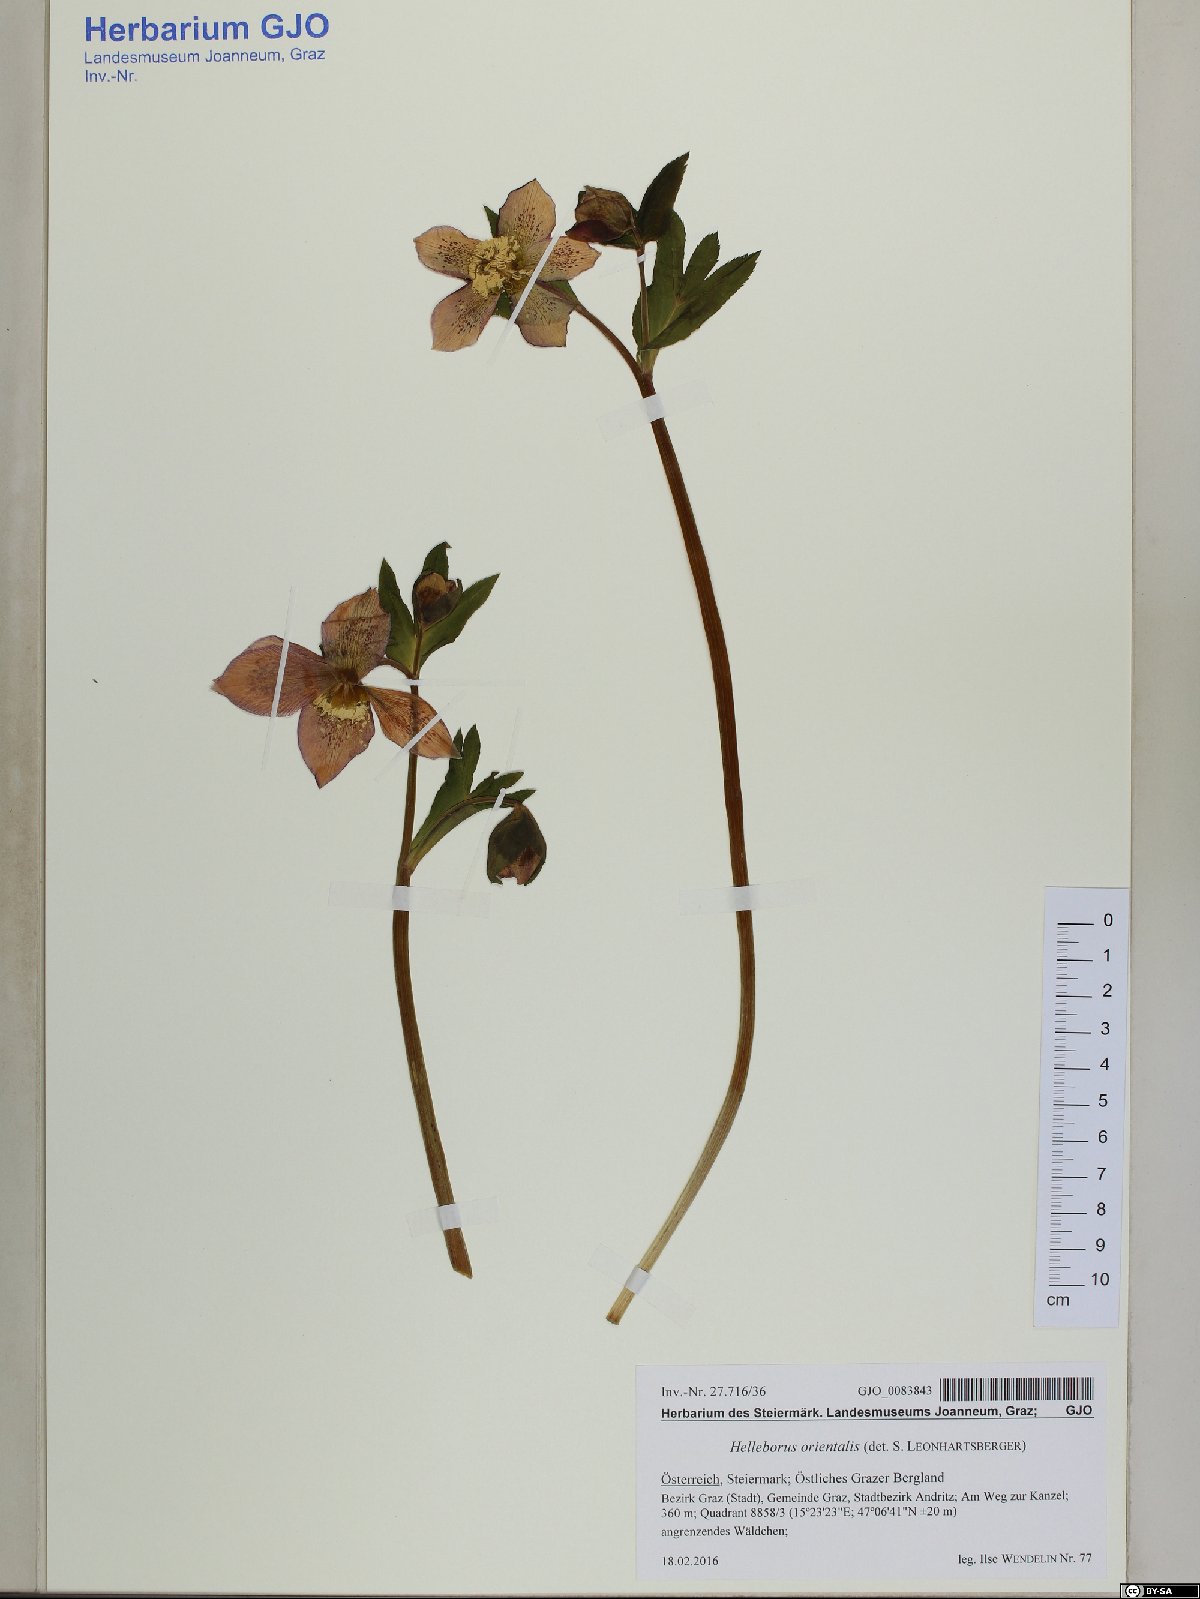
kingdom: Plantae
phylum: Tracheophyta
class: Magnoliopsida
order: Ranunculales
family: Ranunculaceae
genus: Helleborus
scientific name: Helleborus orientalis
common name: Lenten-rose
